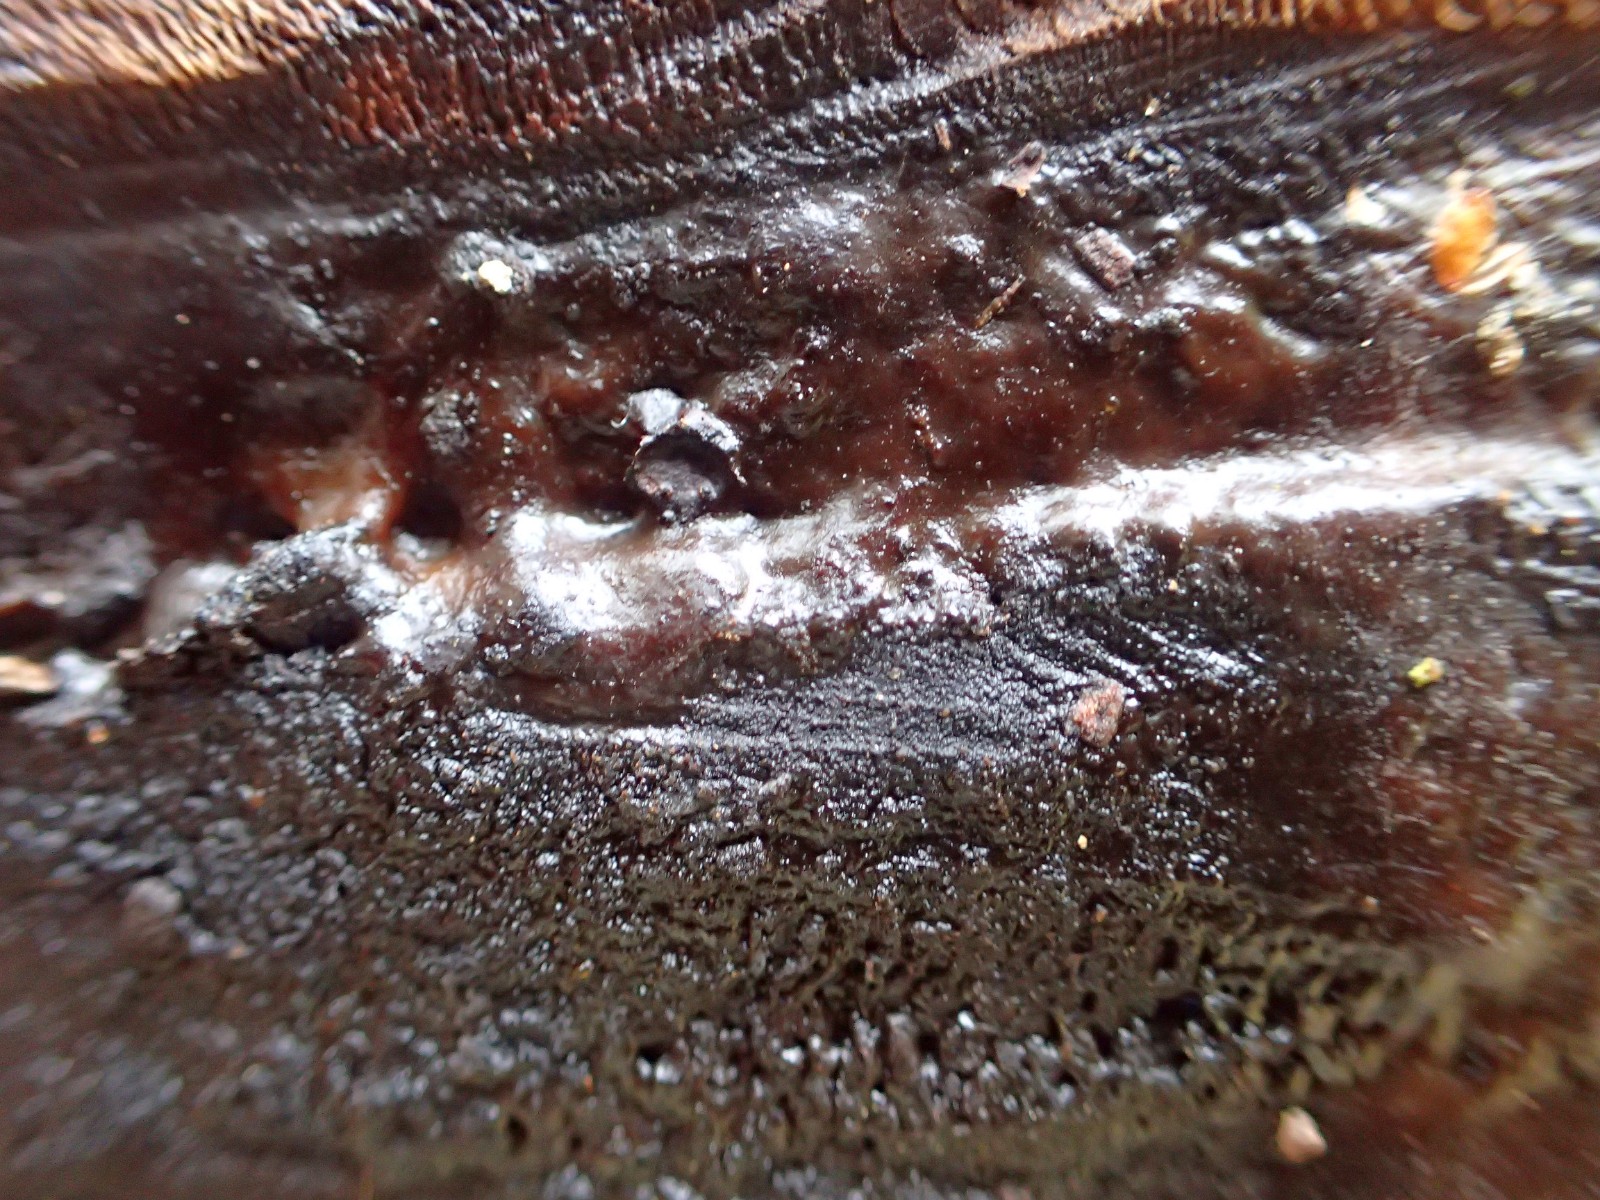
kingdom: Fungi
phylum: Basidiomycota
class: Agaricomycetes
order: Auriculariales
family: Auriculariaceae
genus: Exidia
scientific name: Exidia pithya
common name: gran-bævretop
